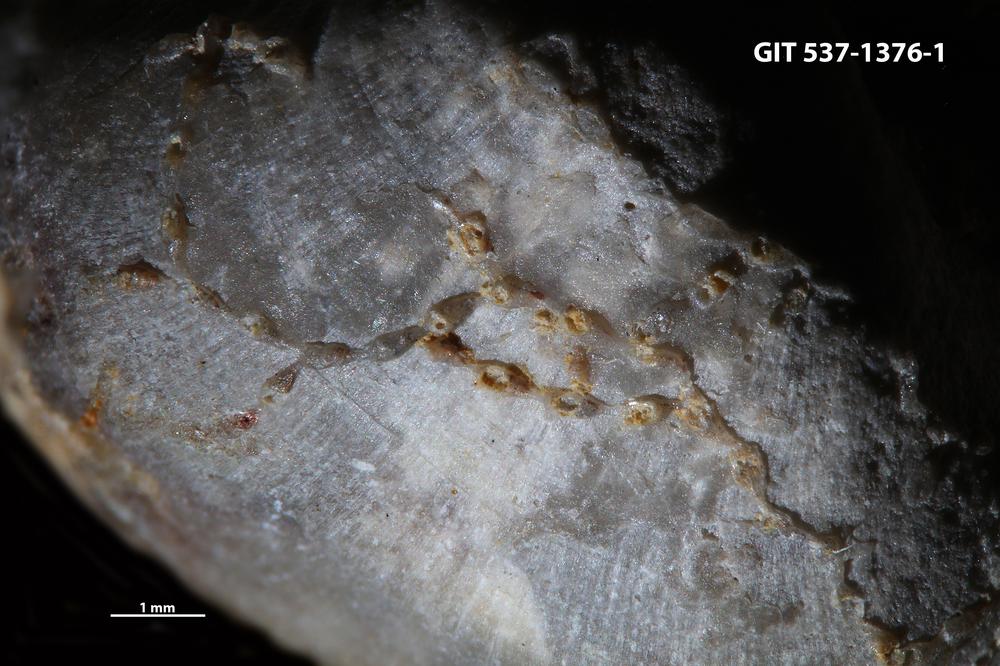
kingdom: Animalia
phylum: Bryozoa
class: Stenolaemata
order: Cyclostomatida
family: Corynotrypidae
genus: Corynotrypa
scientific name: Corynotrypa delicatula
